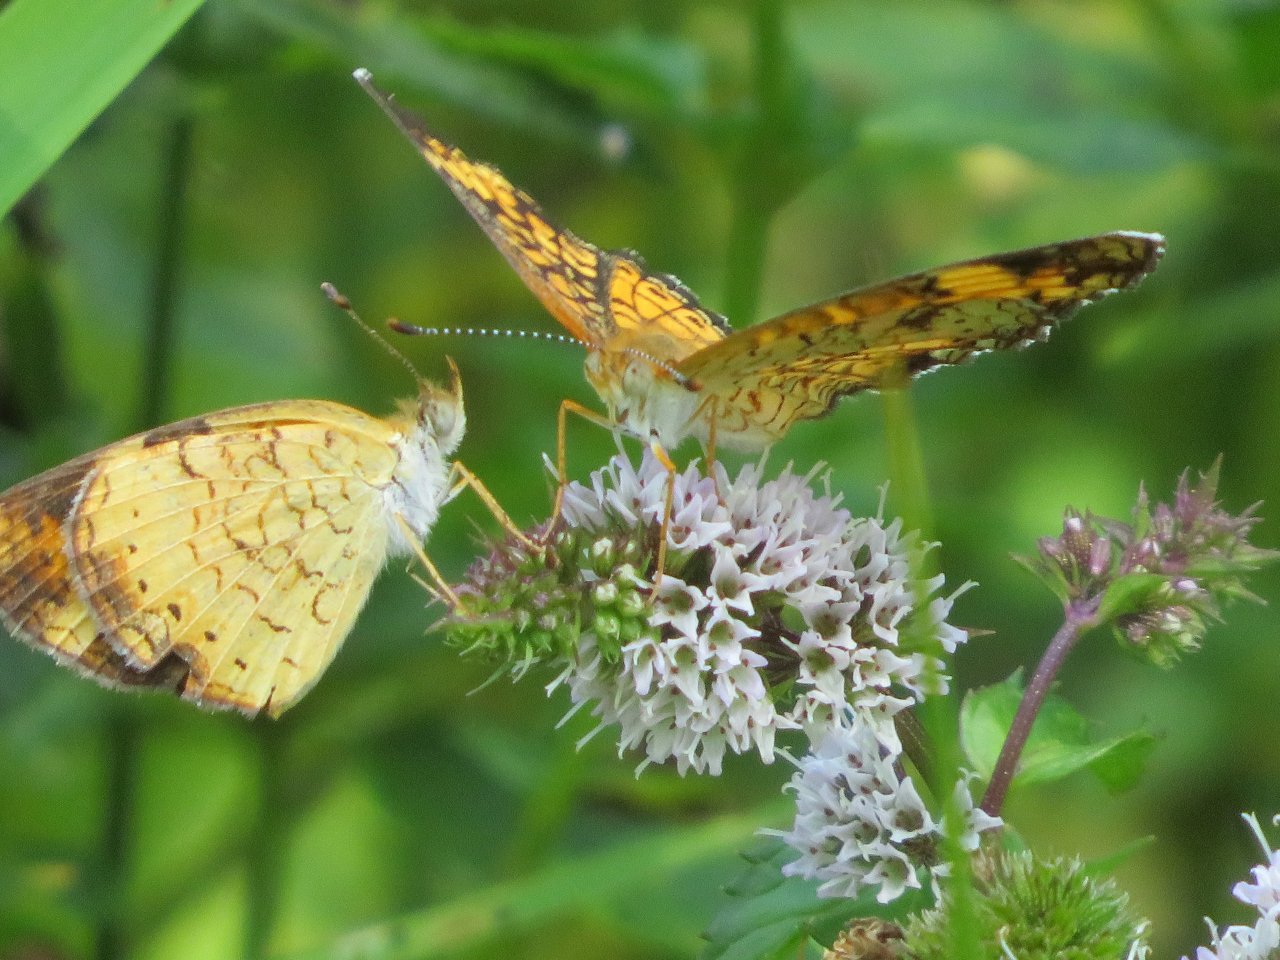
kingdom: Animalia
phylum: Arthropoda
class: Insecta
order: Lepidoptera
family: Nymphalidae
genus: Phyciodes
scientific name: Phyciodes tharos
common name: Pearl Crescent
